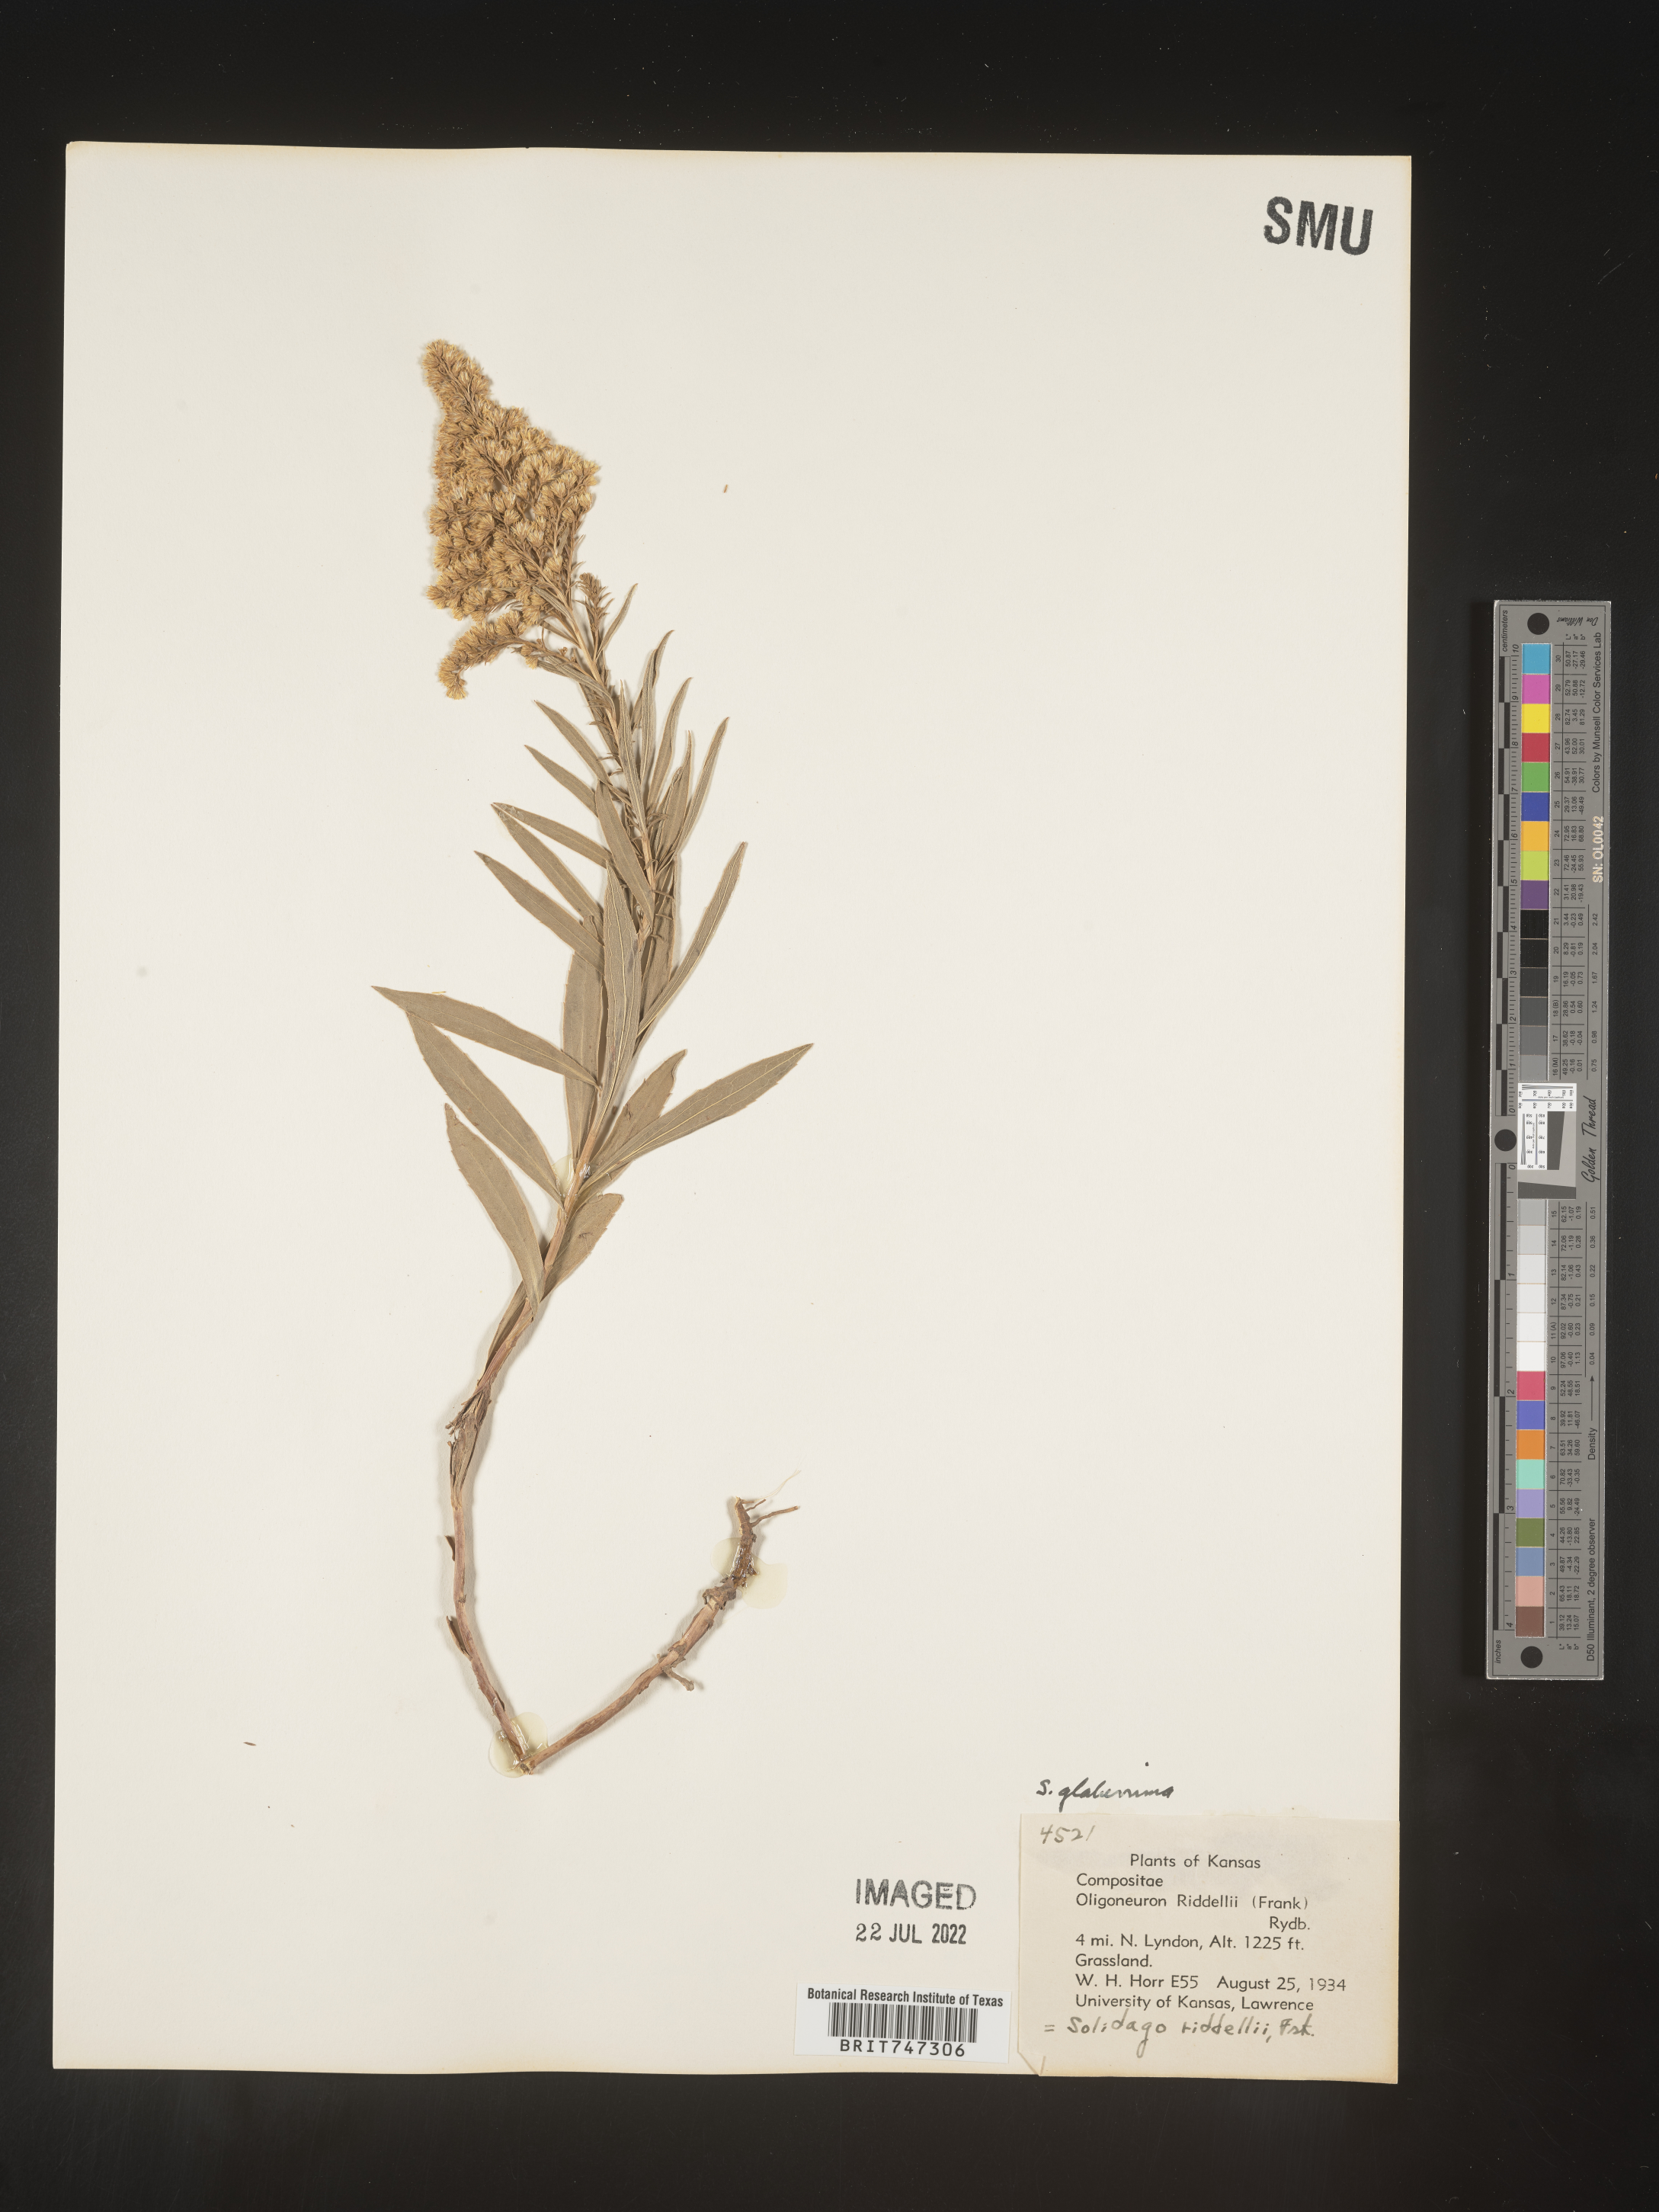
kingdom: Plantae
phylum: Tracheophyta
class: Magnoliopsida
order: Asterales
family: Asteraceae
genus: Solidago
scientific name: Solidago missouriensis
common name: Prairie goldenrod
